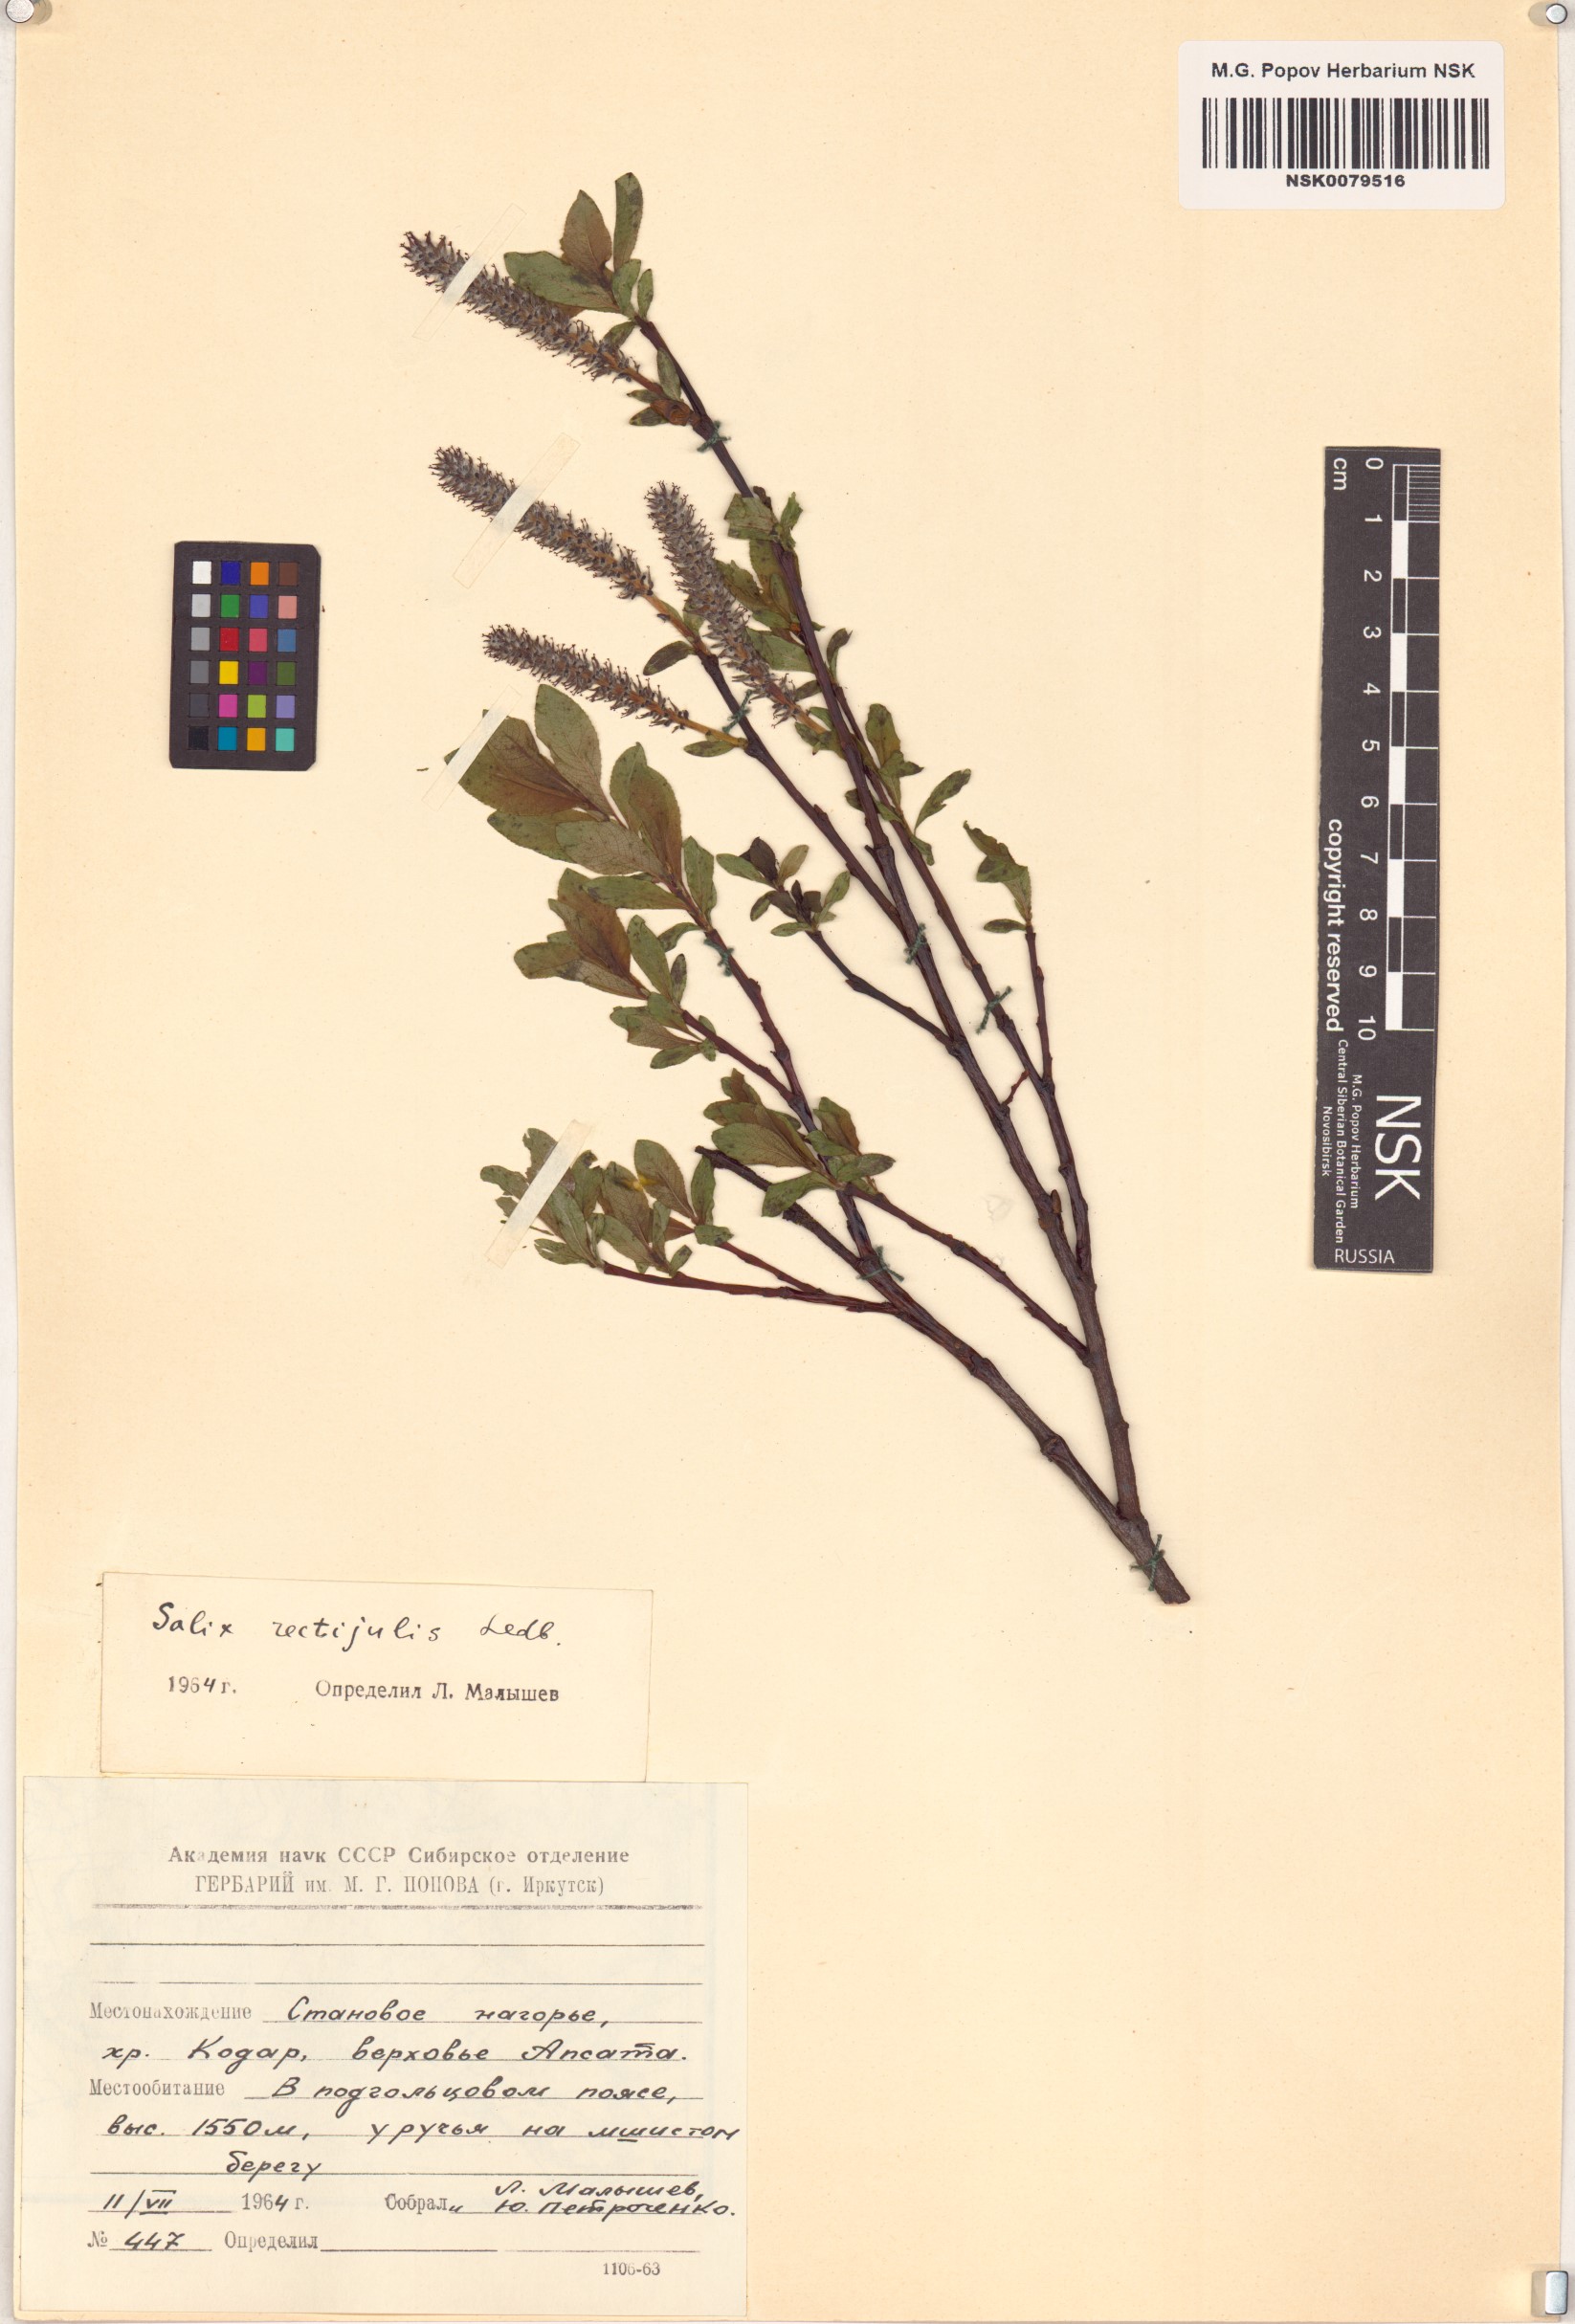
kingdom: Plantae
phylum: Tracheophyta
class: Magnoliopsida
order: Malpighiales
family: Salicaceae
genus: Salix
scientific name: Salix rectijulis
